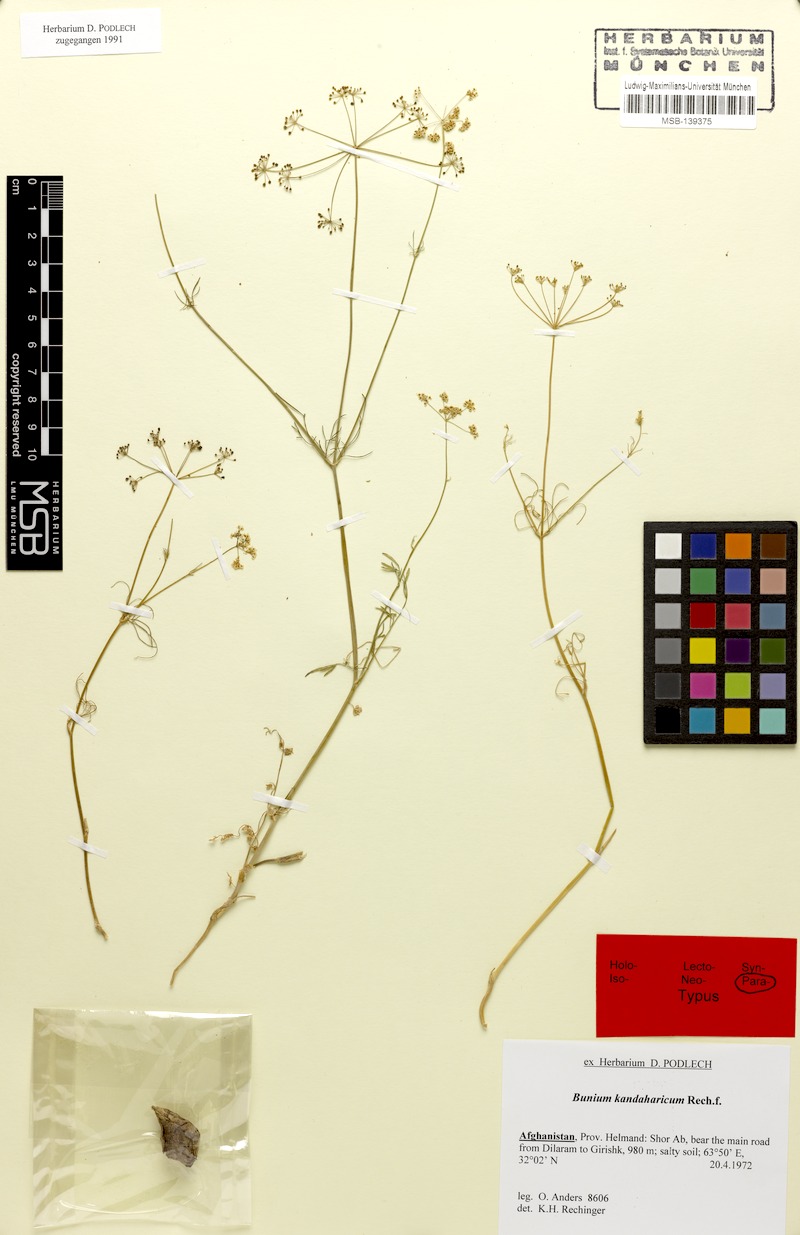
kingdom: Plantae
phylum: Tracheophyta
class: Magnoliopsida
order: Apiales
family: Apiaceae
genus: Elwendia
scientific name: Elwendia stewartiana
